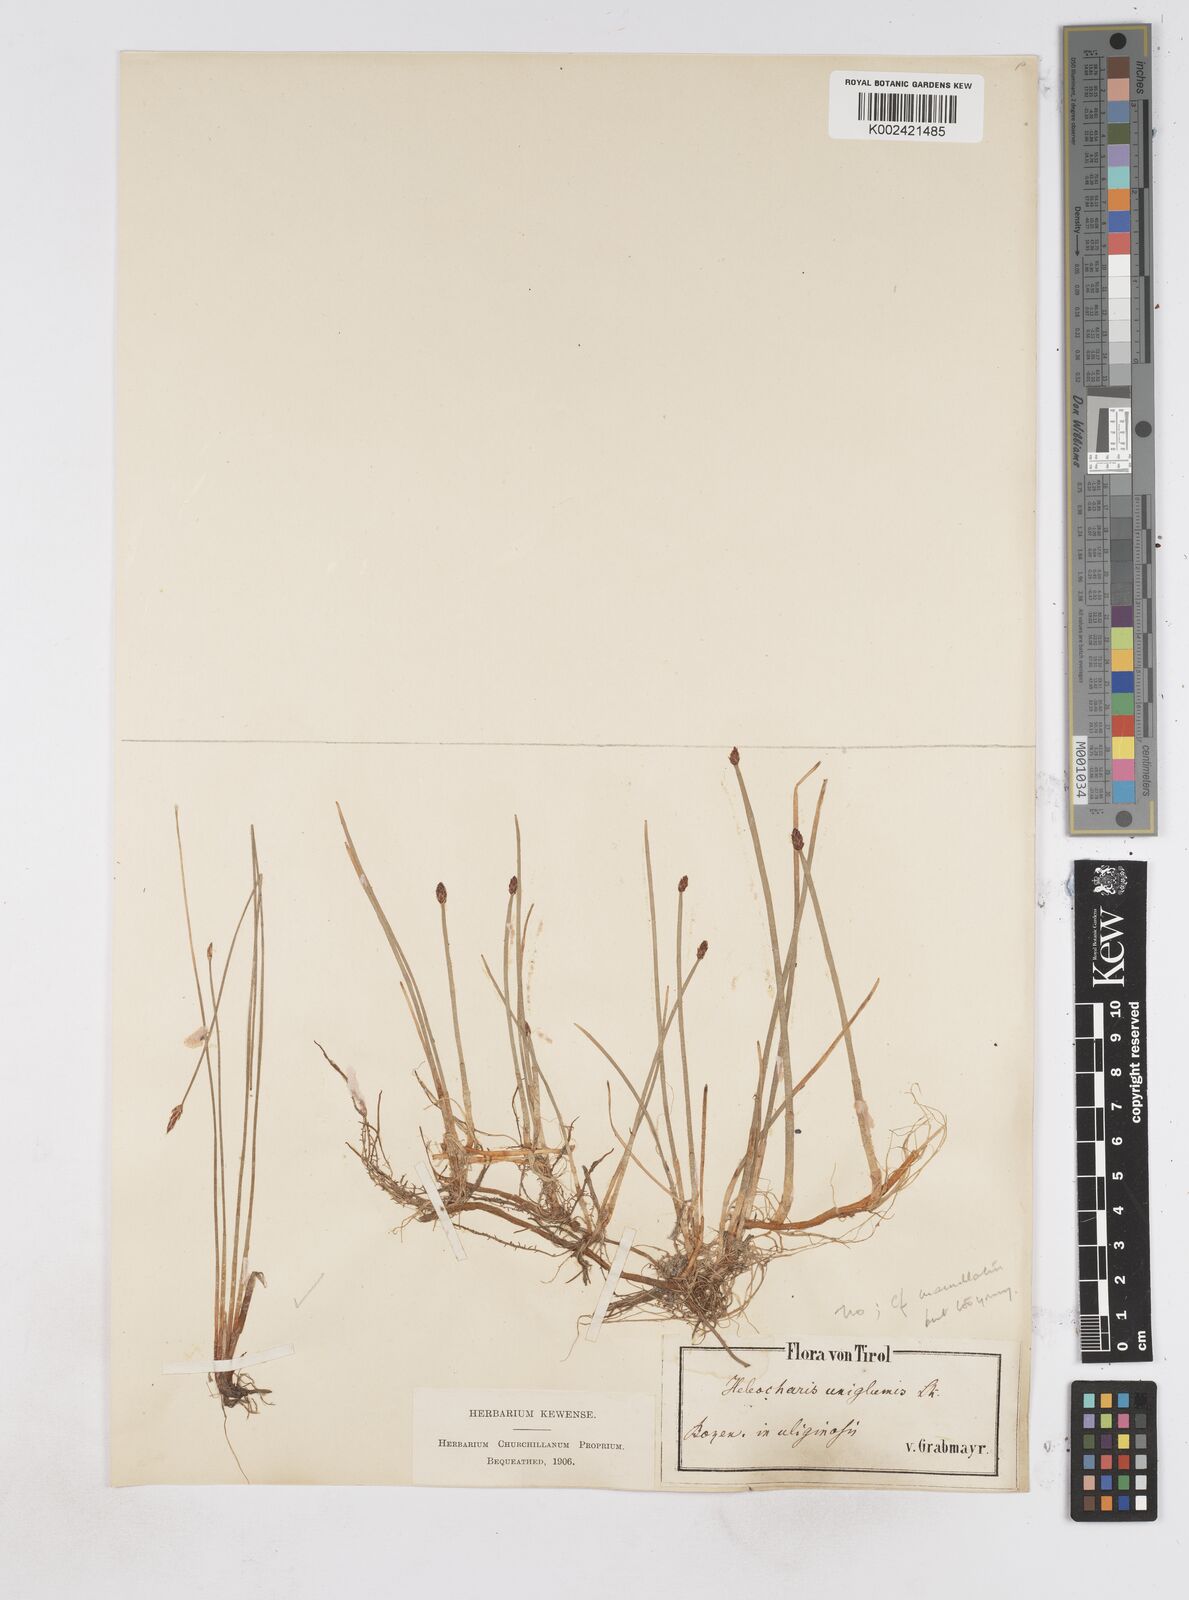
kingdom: Plantae
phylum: Tracheophyta
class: Liliopsida
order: Poales
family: Cyperaceae
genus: Eleocharis
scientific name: Eleocharis uniglumis
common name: Slender spike-rush
